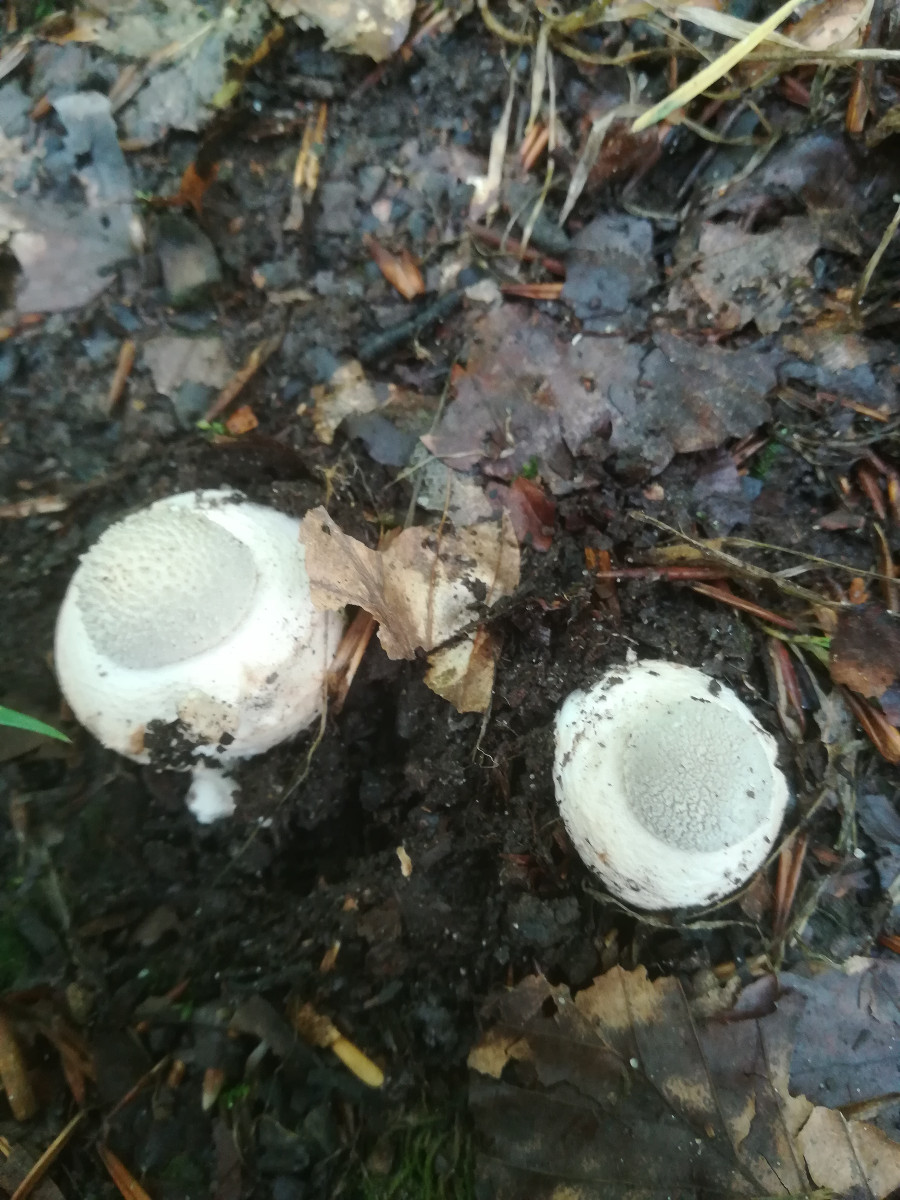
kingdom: Fungi
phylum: Basidiomycota
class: Agaricomycetes
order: Agaricales
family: Amanitaceae
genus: Amanita
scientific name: Amanita
